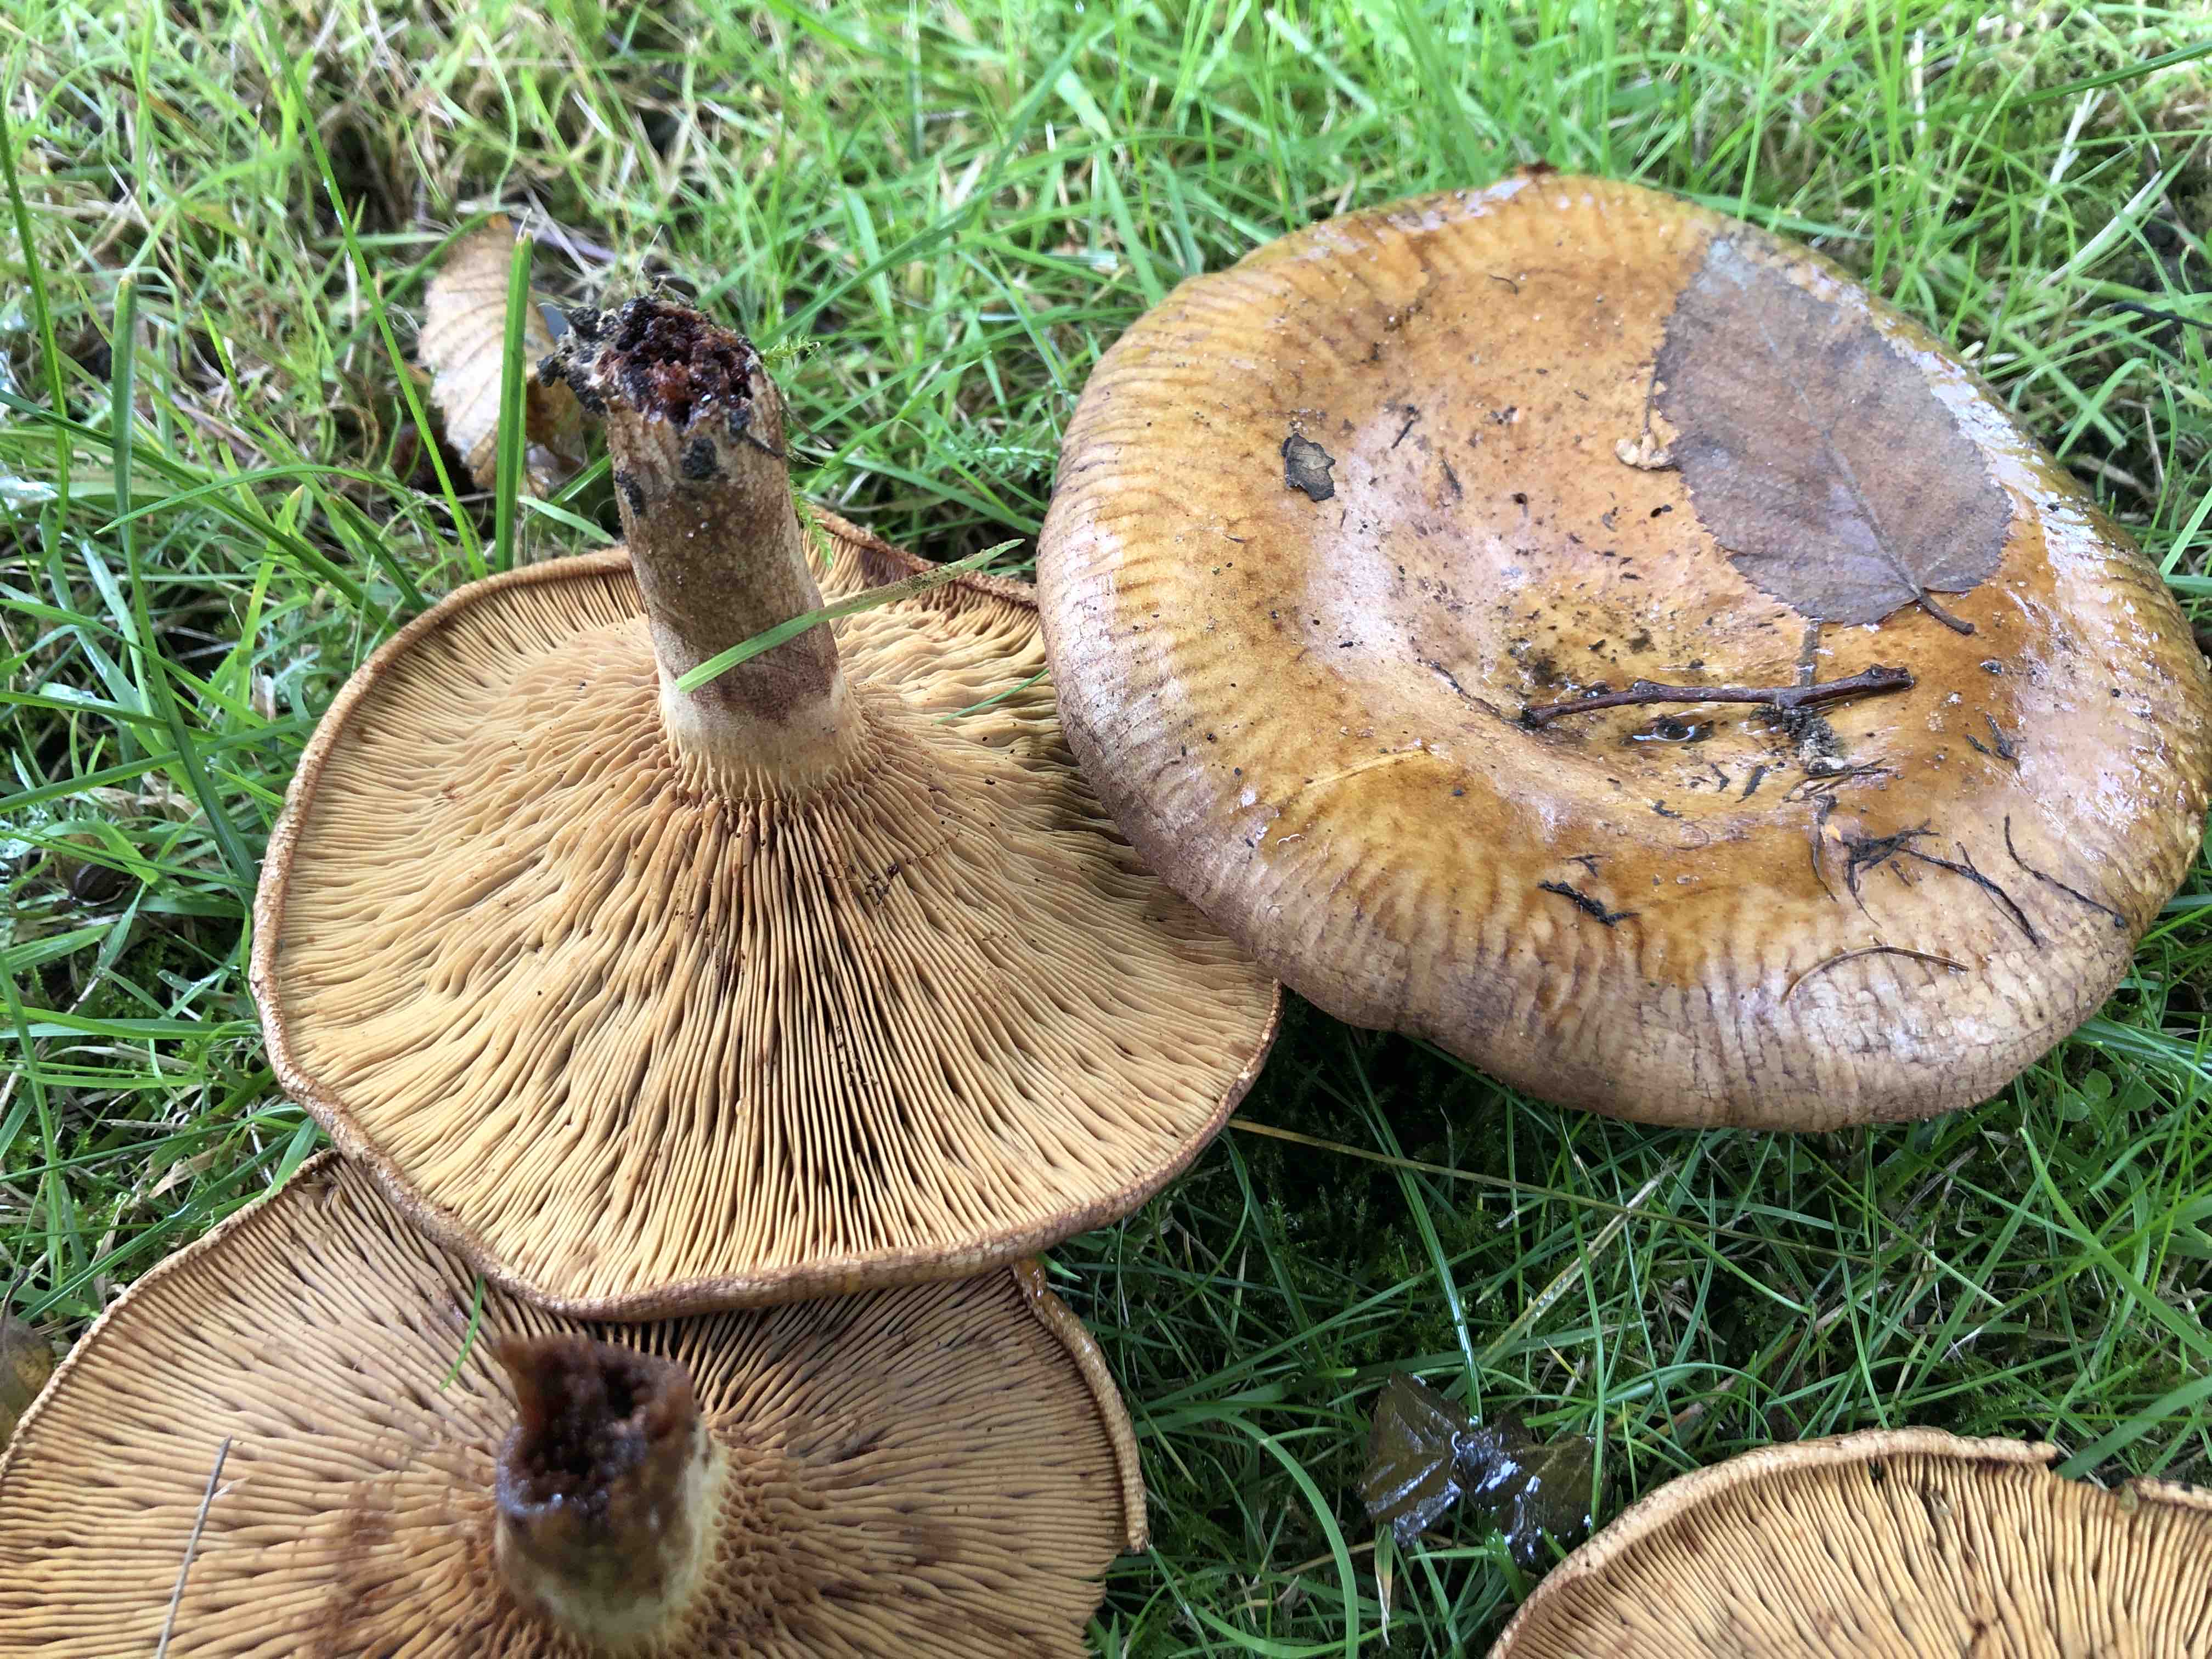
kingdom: Fungi
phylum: Basidiomycota
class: Agaricomycetes
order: Boletales
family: Paxillaceae
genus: Paxillus
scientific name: Paxillus
